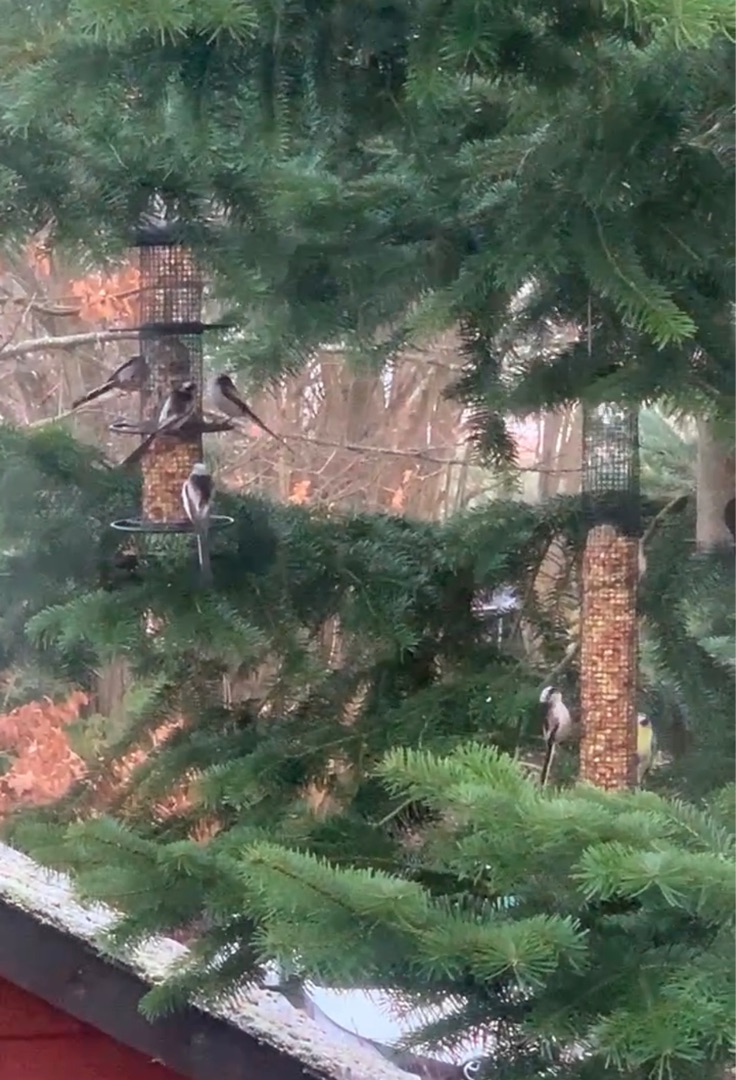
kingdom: Animalia
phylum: Chordata
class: Aves
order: Passeriformes
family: Aegithalidae
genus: Aegithalos
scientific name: Aegithalos caudatus
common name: Halemejse
